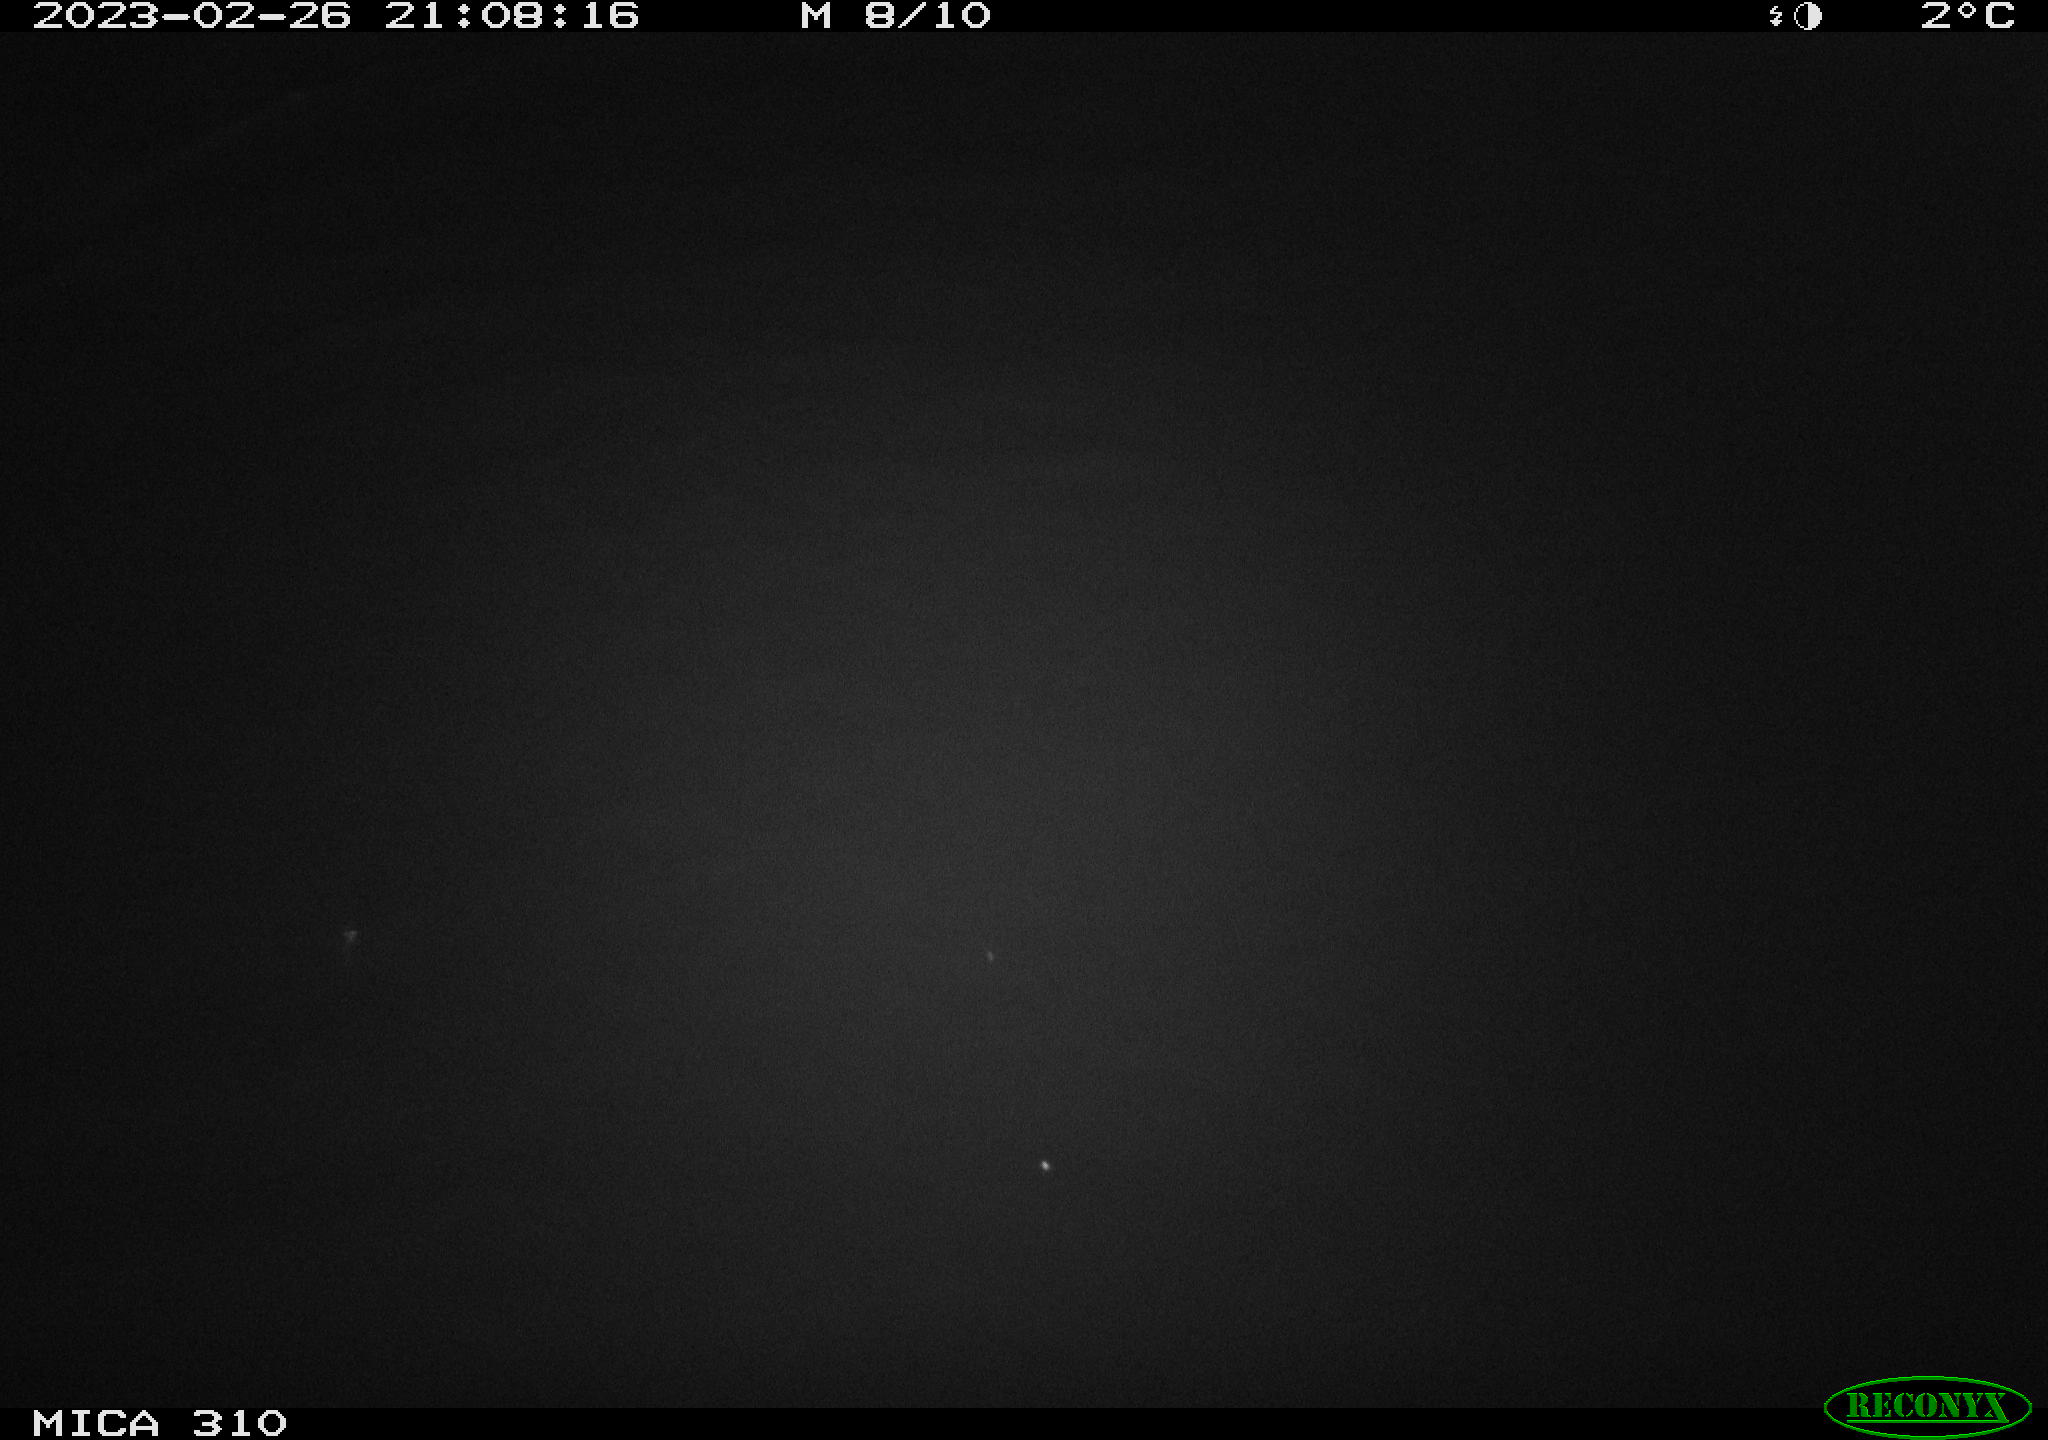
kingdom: Animalia
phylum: Chordata
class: Aves
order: Anseriformes
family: Anatidae
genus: Anas
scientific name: Anas
